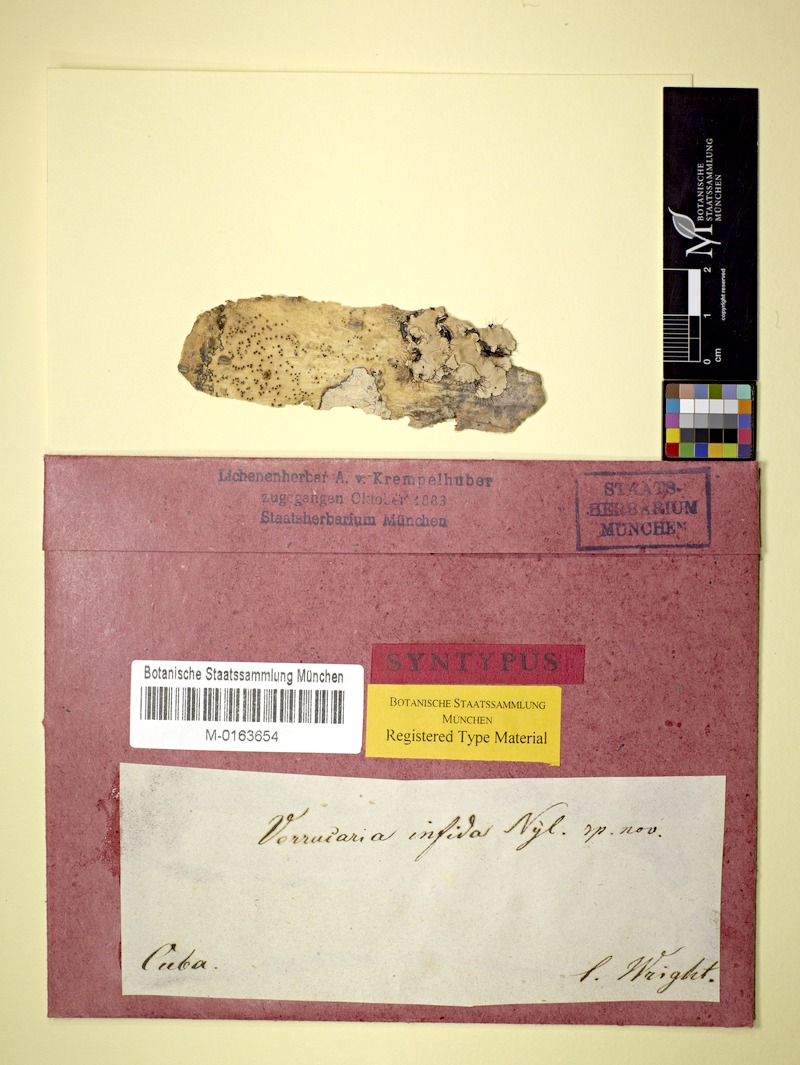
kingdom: Fungi
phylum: Ascomycota
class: Eurotiomycetes
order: Pyrenulales
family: Pyrenulaceae
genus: Pyrenula
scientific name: Pyrenula
